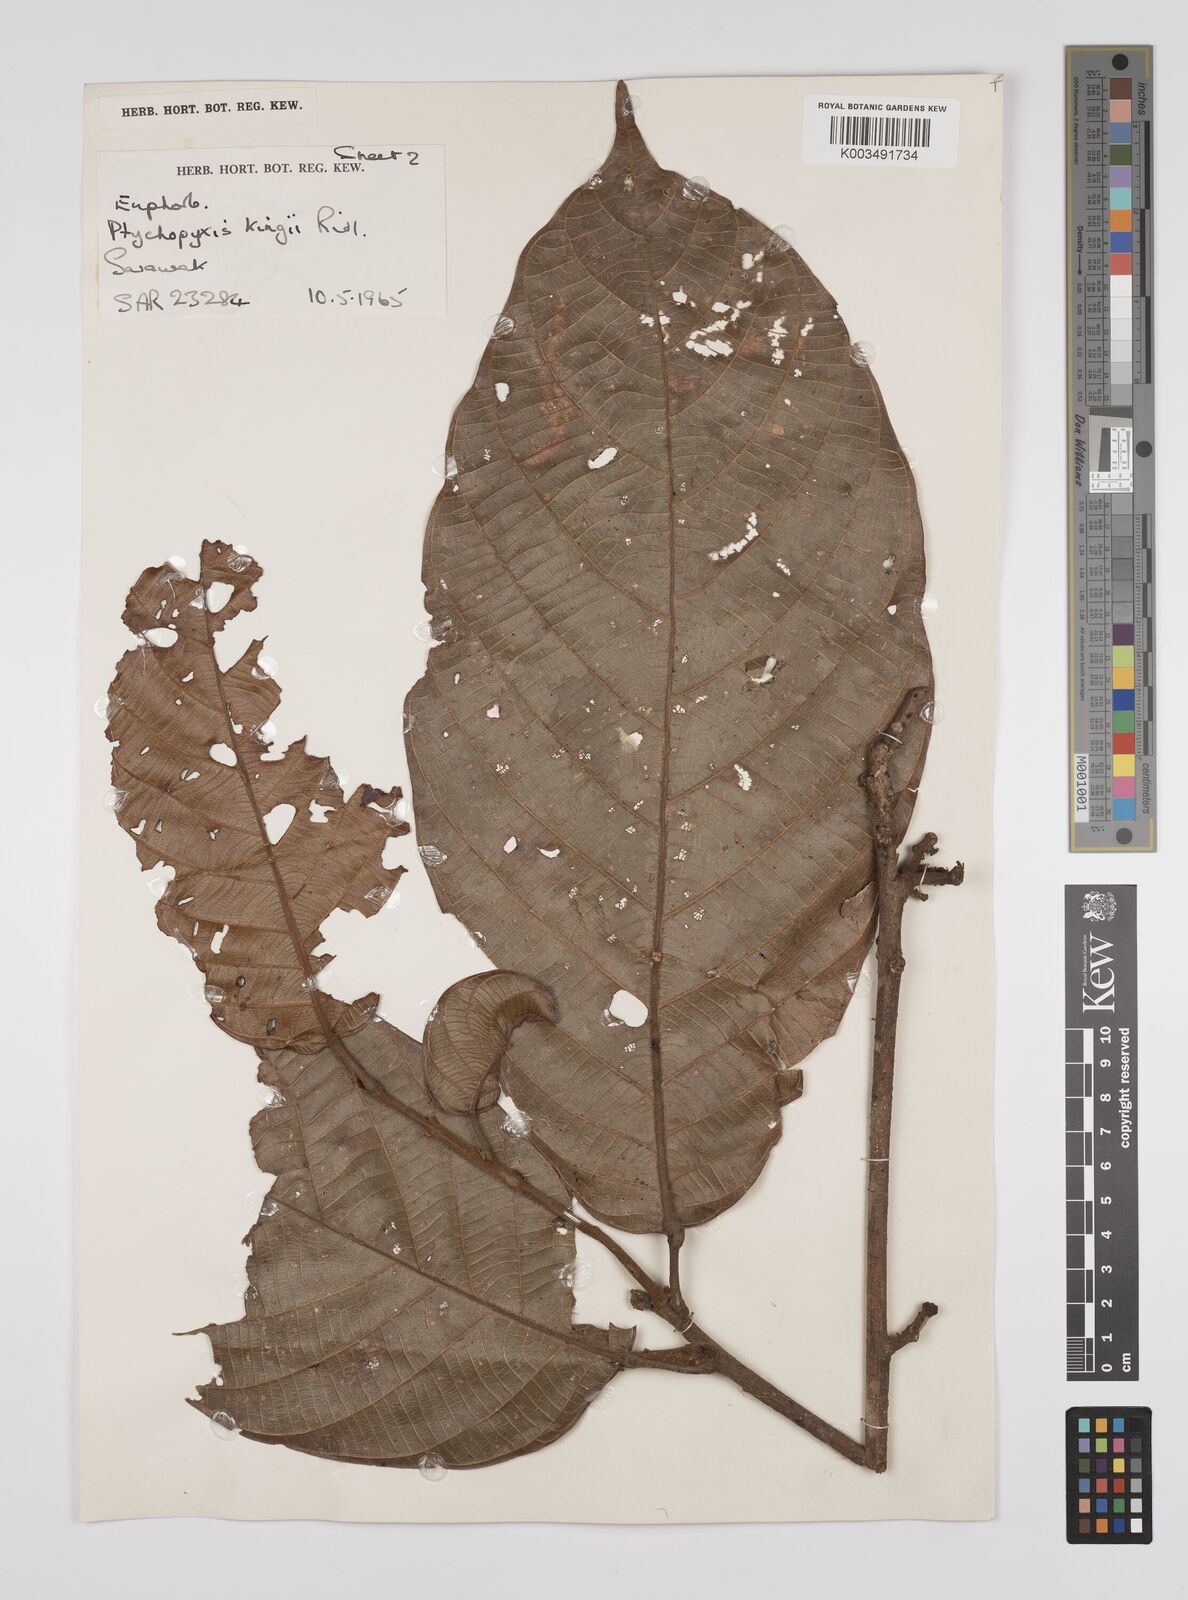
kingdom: Plantae
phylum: Tracheophyta
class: Magnoliopsida
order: Malpighiales
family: Euphorbiaceae
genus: Ptychopyxis
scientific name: Ptychopyxis kingii
